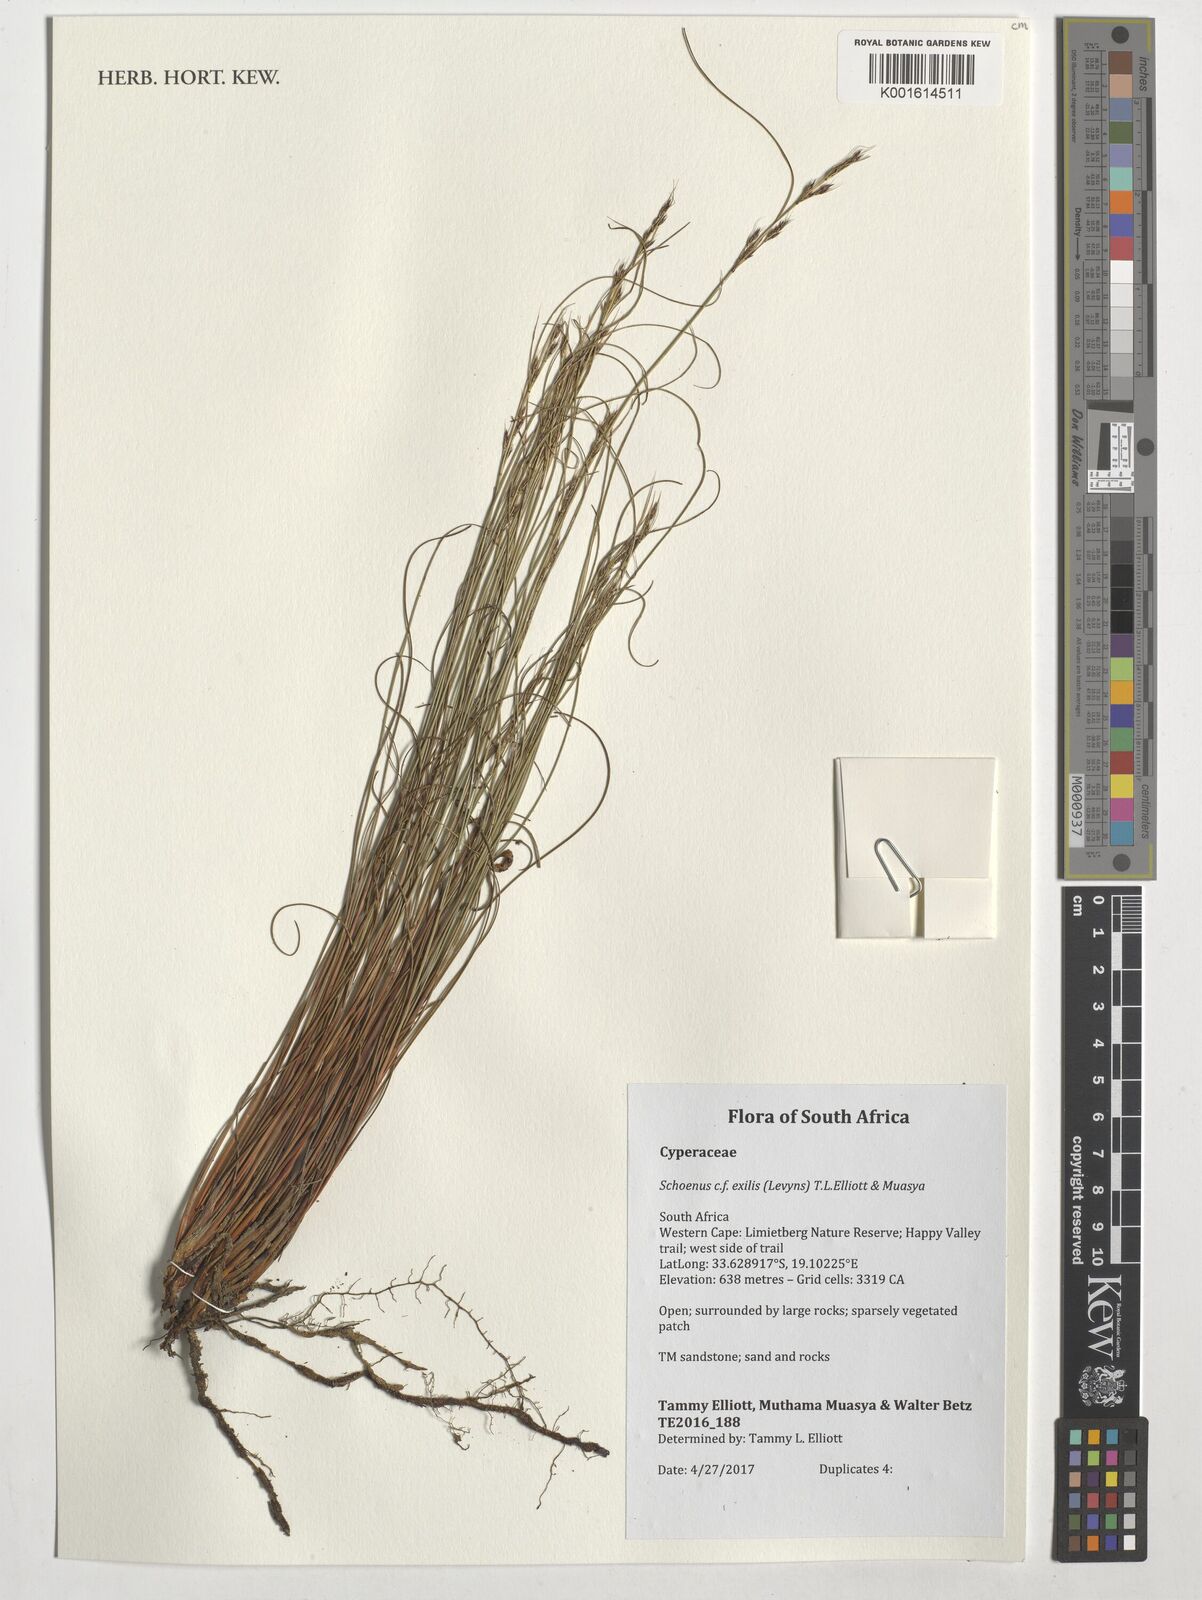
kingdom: Plantae
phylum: Tracheophyta
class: Liliopsida
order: Poales
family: Cyperaceae
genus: Schoenus
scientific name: Schoenus exilis
